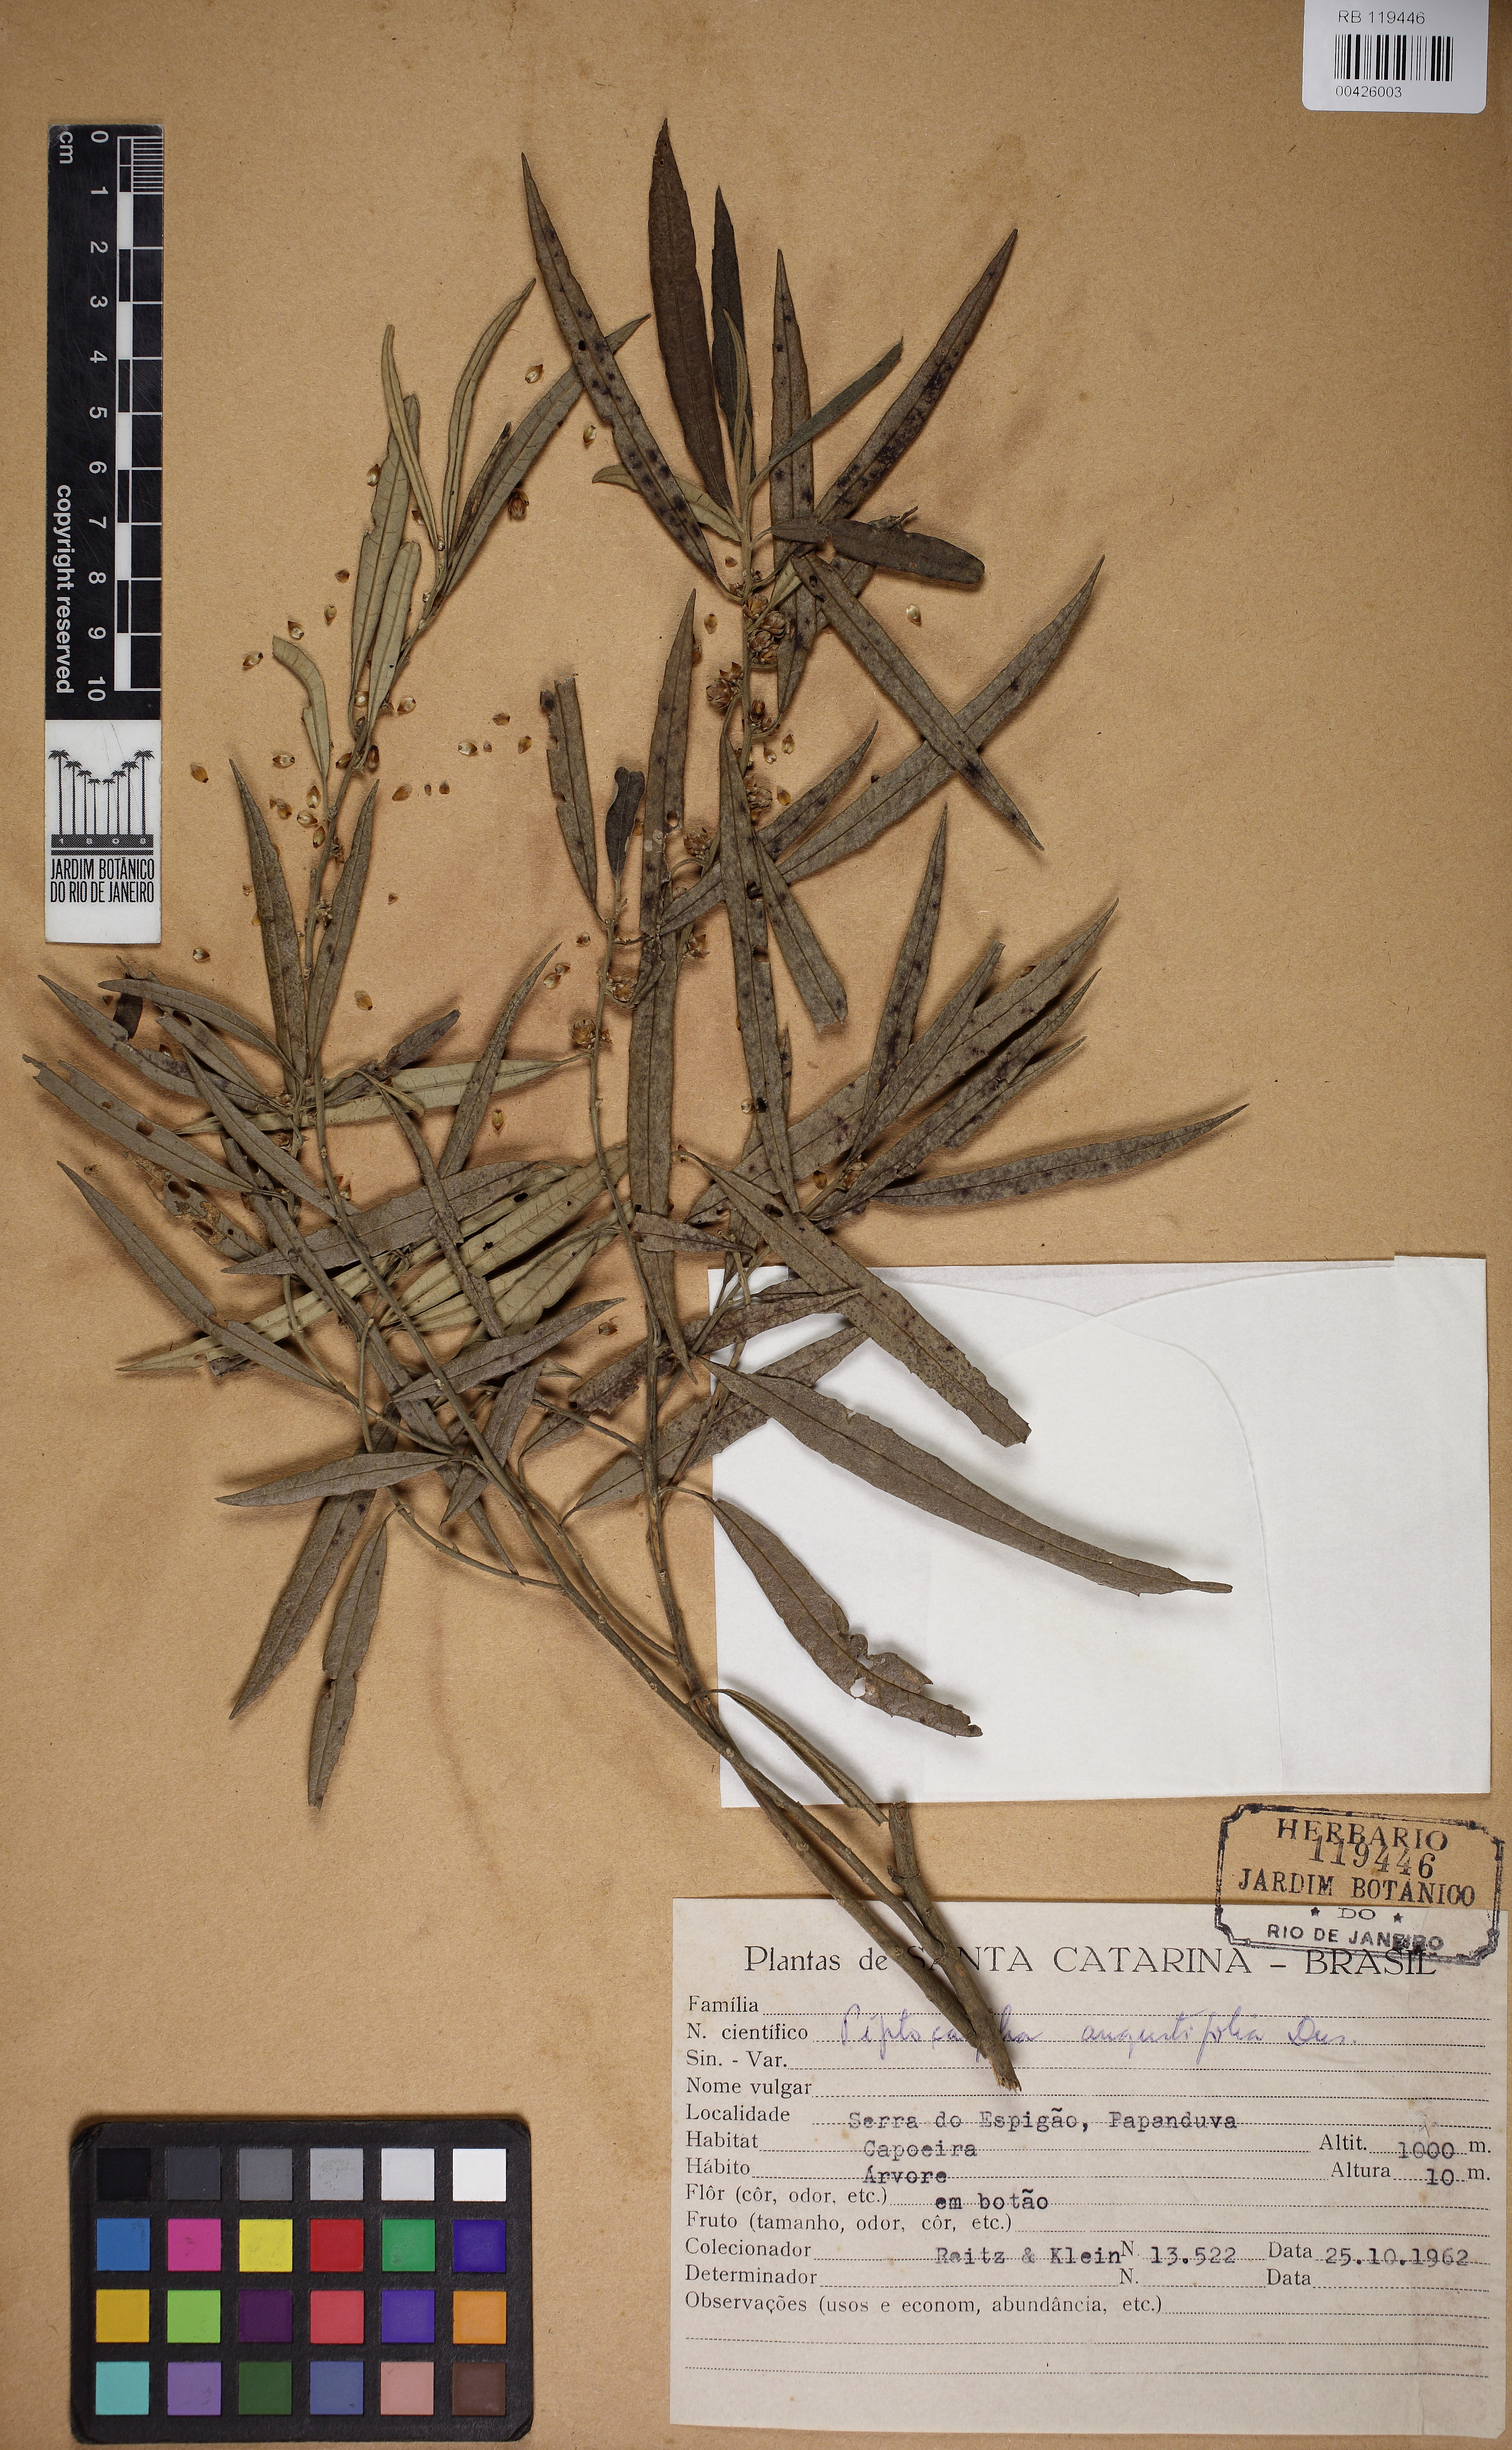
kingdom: Plantae
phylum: Tracheophyta
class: Magnoliopsida
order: Asterales
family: Asteraceae
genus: Piptocarpha
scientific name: Piptocarpha angustifolia
